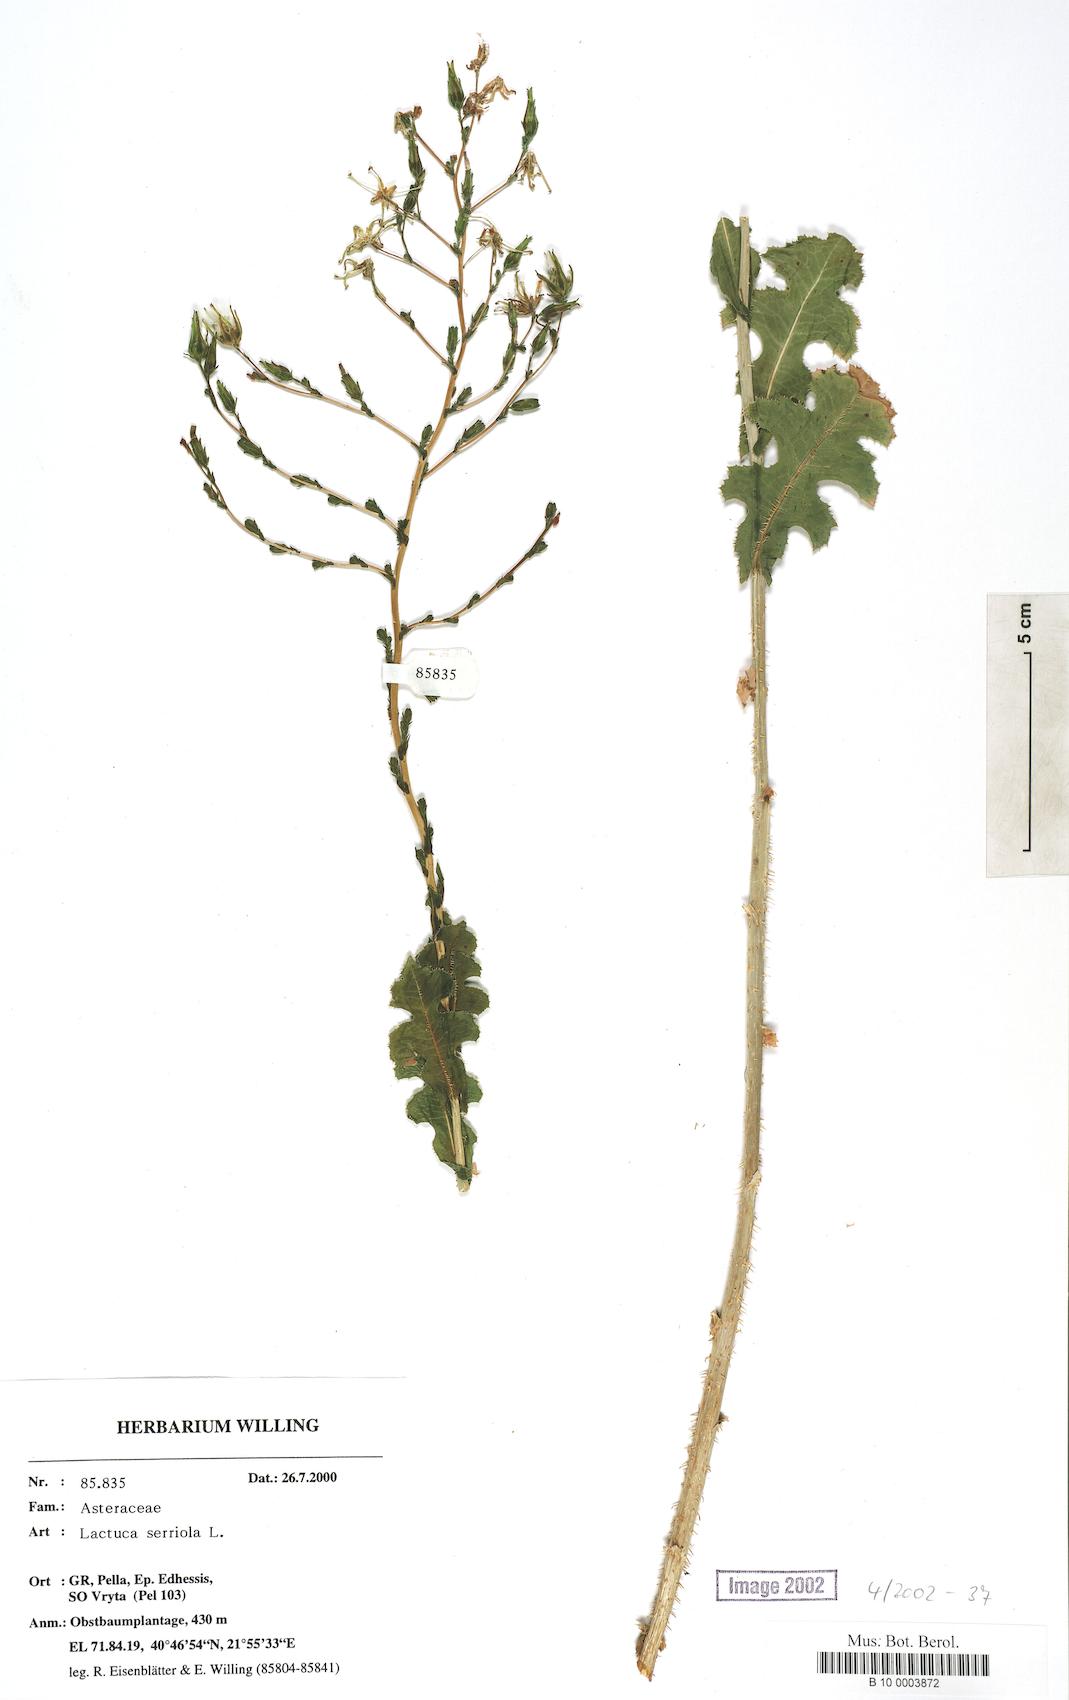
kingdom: Plantae
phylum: Tracheophyta
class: Magnoliopsida
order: Asterales
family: Asteraceae
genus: Lactuca
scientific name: Lactuca serriola
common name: Prickly lettuce
